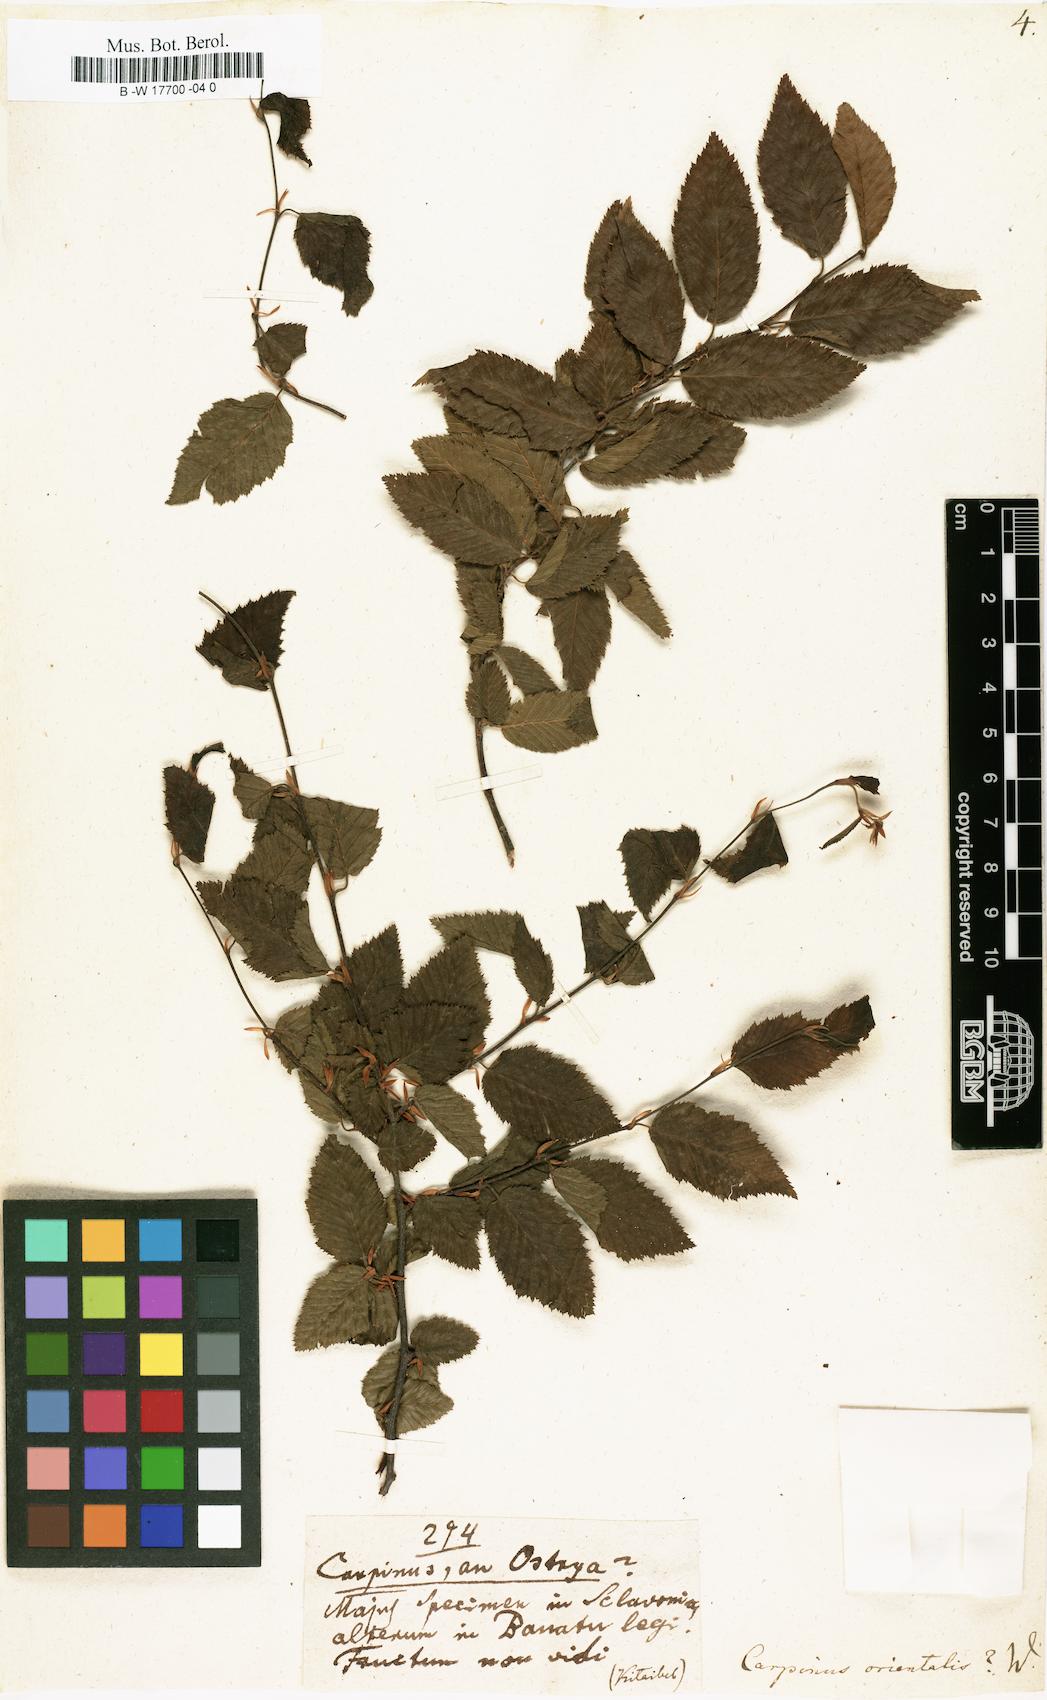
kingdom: Plantae
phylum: Tracheophyta
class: Magnoliopsida
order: Fagales
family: Betulaceae
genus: Carpinus
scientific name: Carpinus orientalis
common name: Eastern hornbeam
